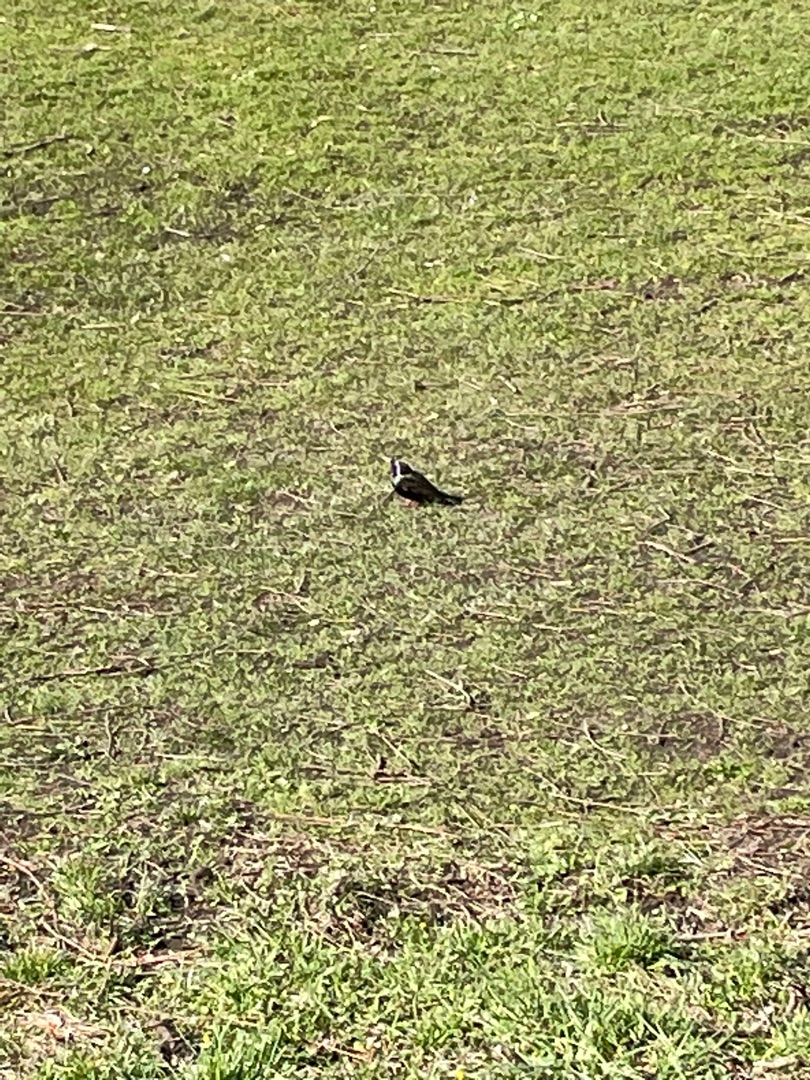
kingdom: Animalia
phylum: Chordata
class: Aves
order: Passeriformes
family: Sturnidae
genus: Sturnus
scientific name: Sturnus vulgaris
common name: Stær
